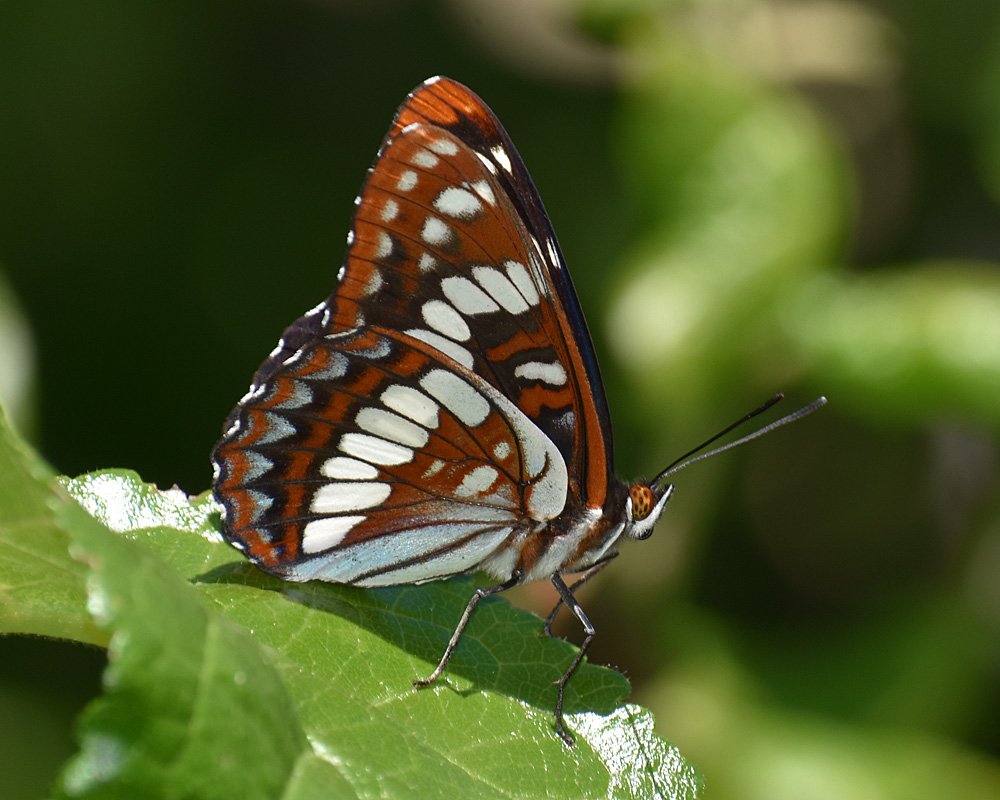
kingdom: Animalia
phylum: Arthropoda
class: Insecta
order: Lepidoptera
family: Nymphalidae
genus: Limenitis
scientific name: Limenitis lorquini
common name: Lorquin's Admiral
